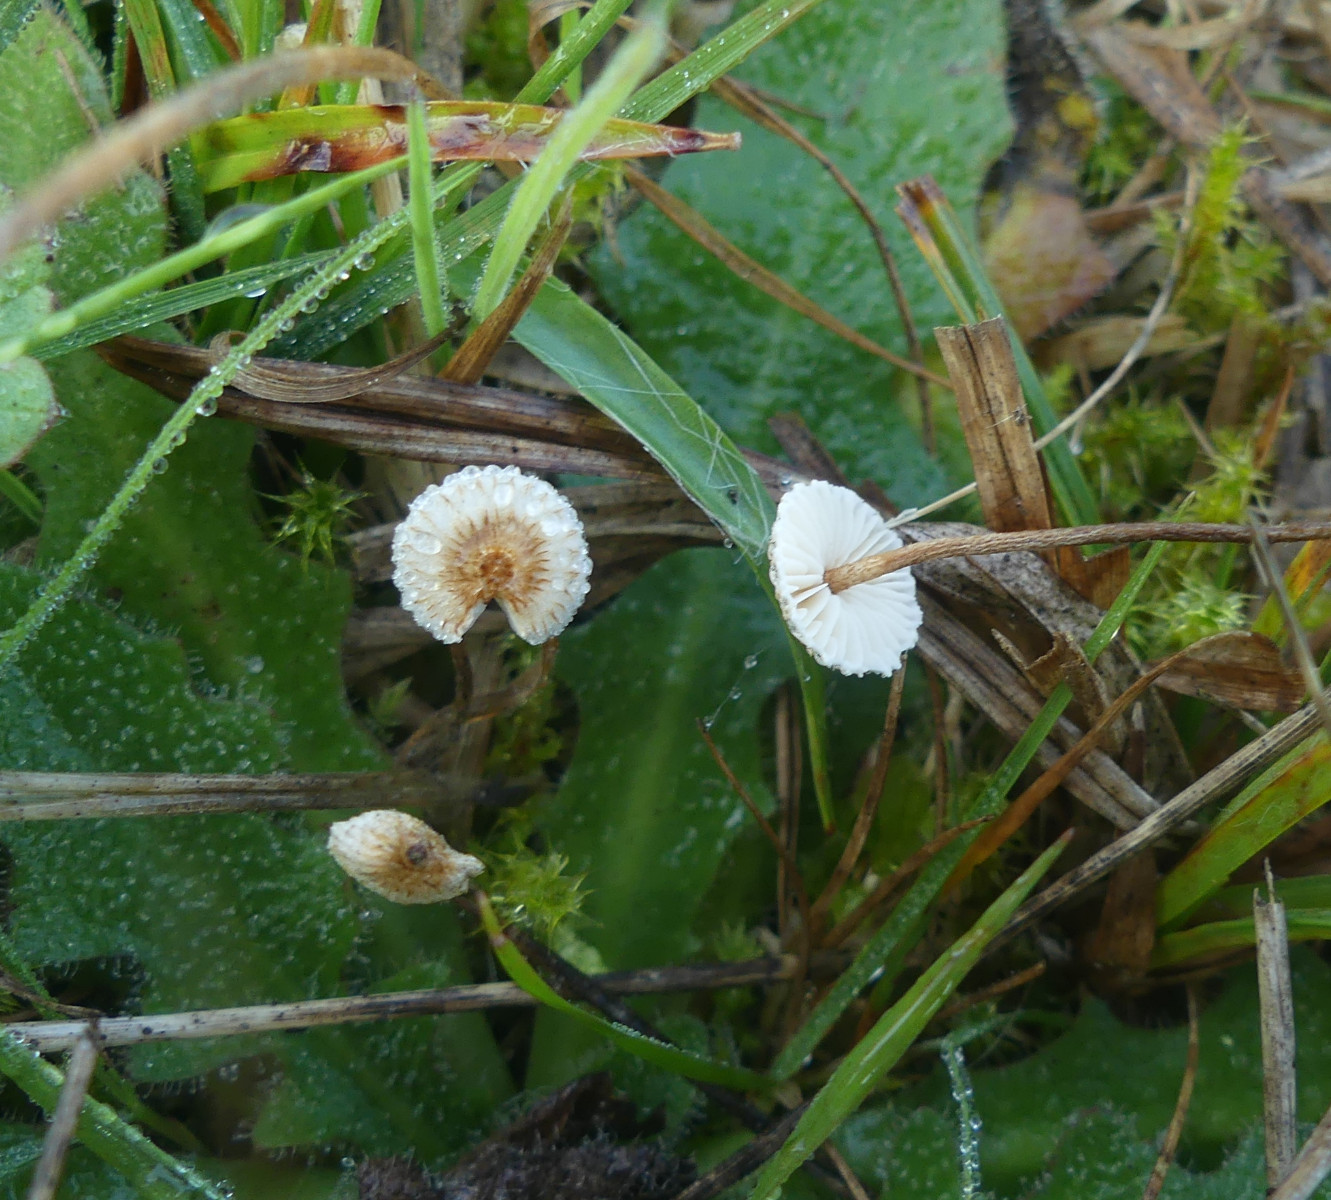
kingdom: Fungi
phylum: Basidiomycota
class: Agaricomycetes
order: Agaricales
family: Marasmiaceae
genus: Crinipellis
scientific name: Crinipellis scabella
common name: børstefod
